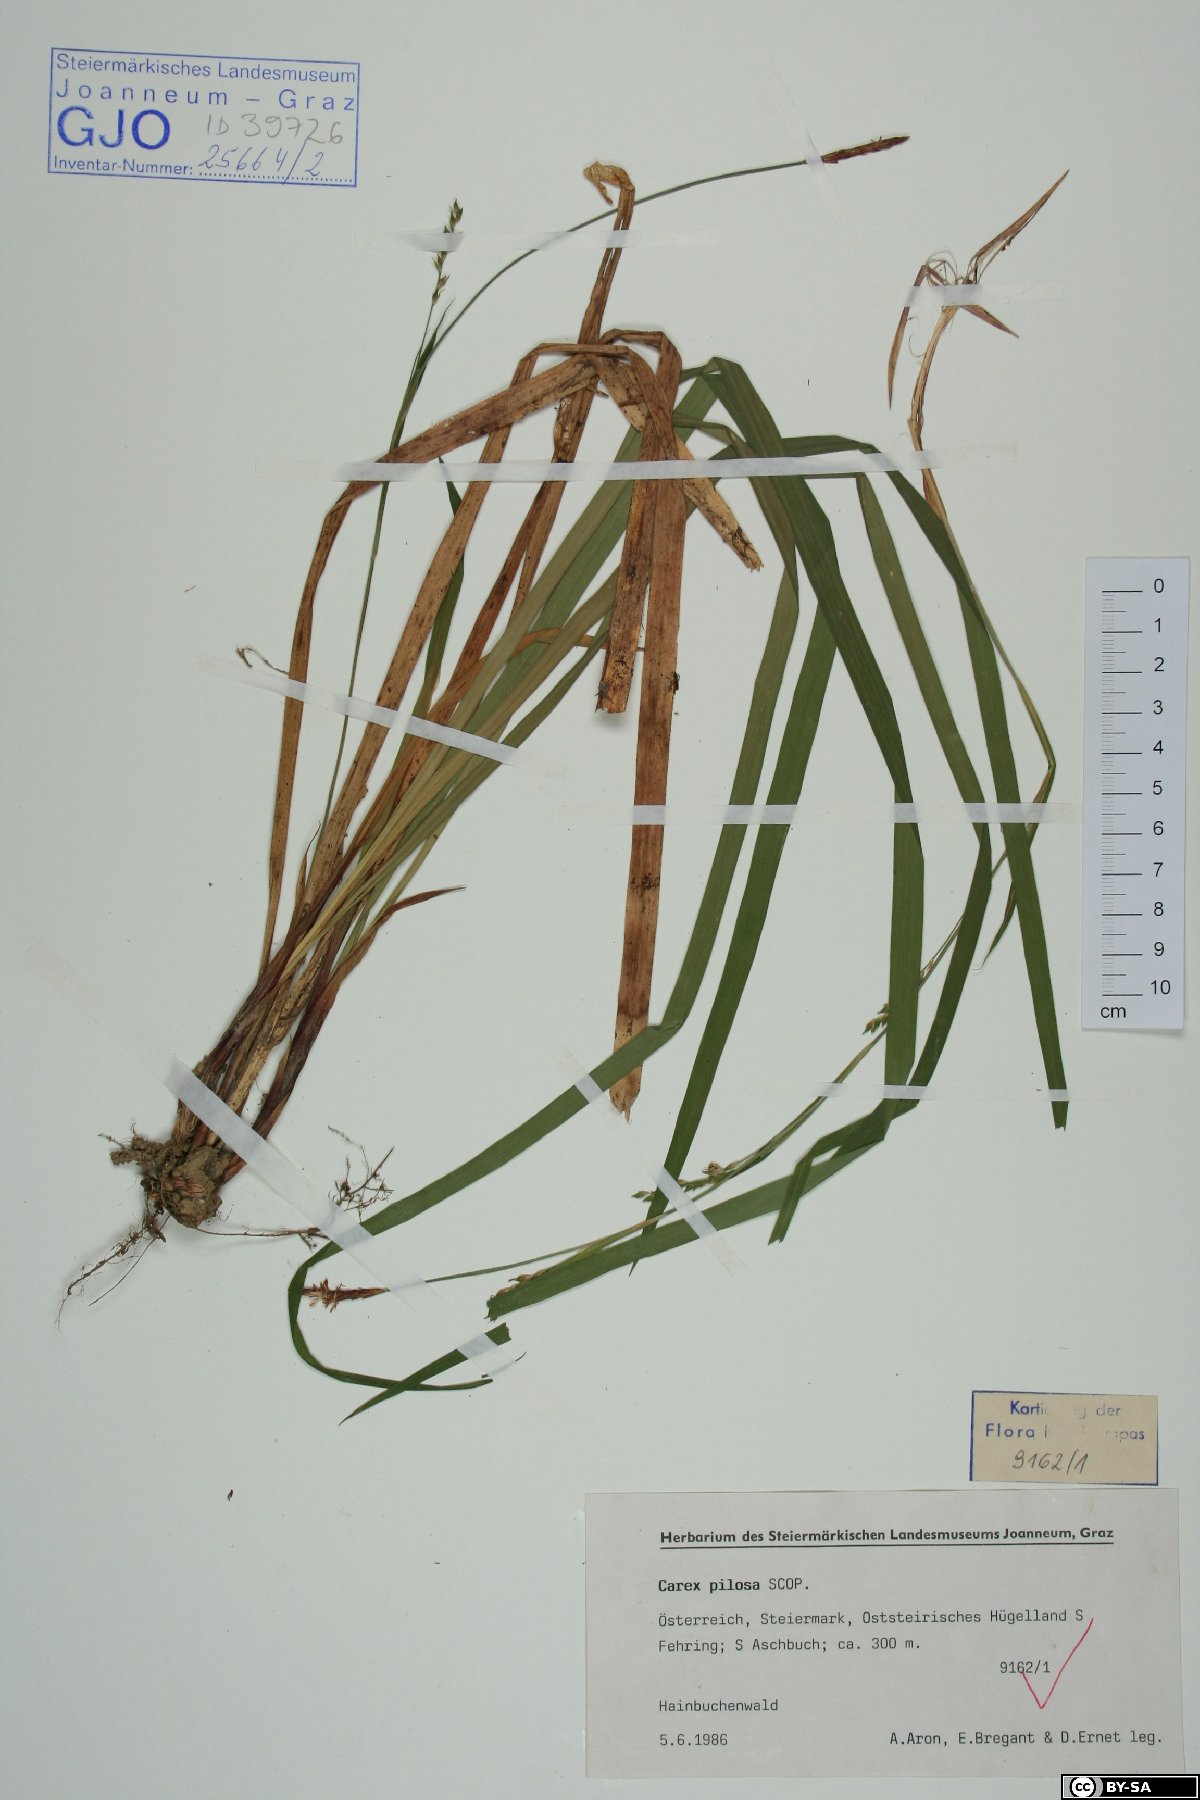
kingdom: Plantae
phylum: Tracheophyta
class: Liliopsida
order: Poales
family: Cyperaceae
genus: Carex
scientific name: Carex pilosa
